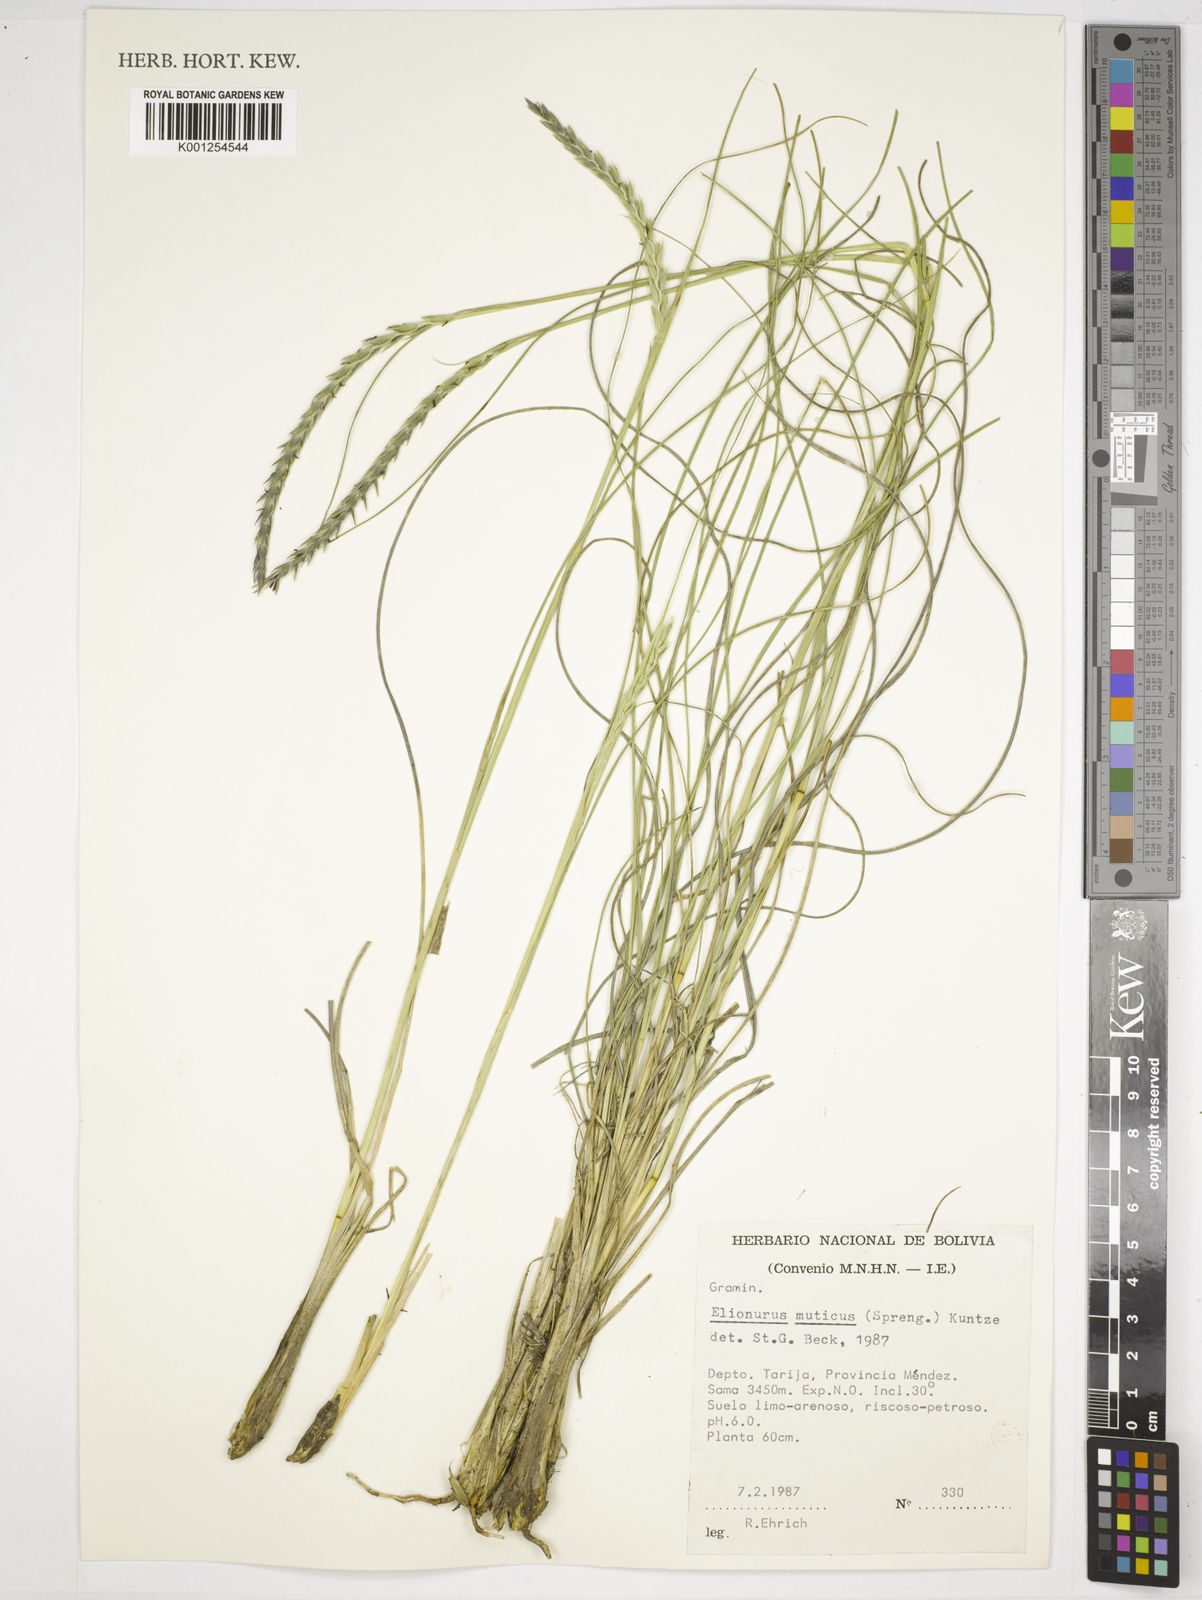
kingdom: Plantae
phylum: Tracheophyta
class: Liliopsida
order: Poales
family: Poaceae
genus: Elionurus
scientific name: Elionurus muticus
